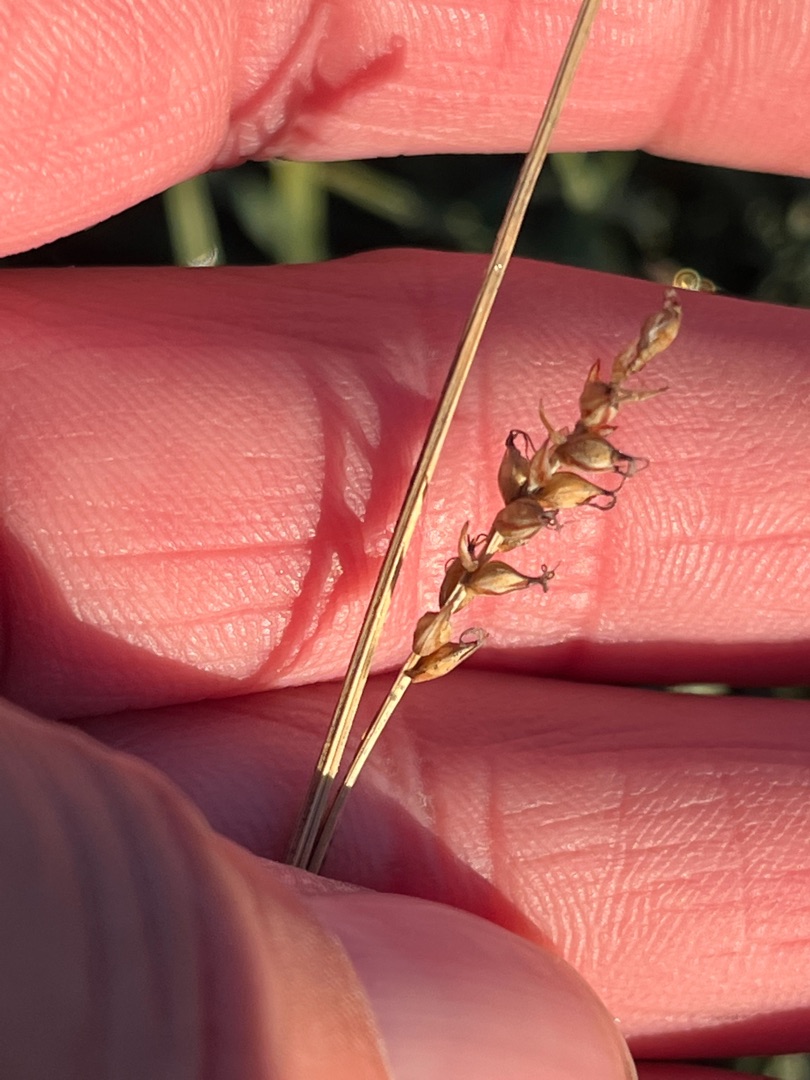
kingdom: Plantae
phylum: Tracheophyta
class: Liliopsida
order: Poales
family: Cyperaceae
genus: Carex
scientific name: Carex panicea
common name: Hirse-star
